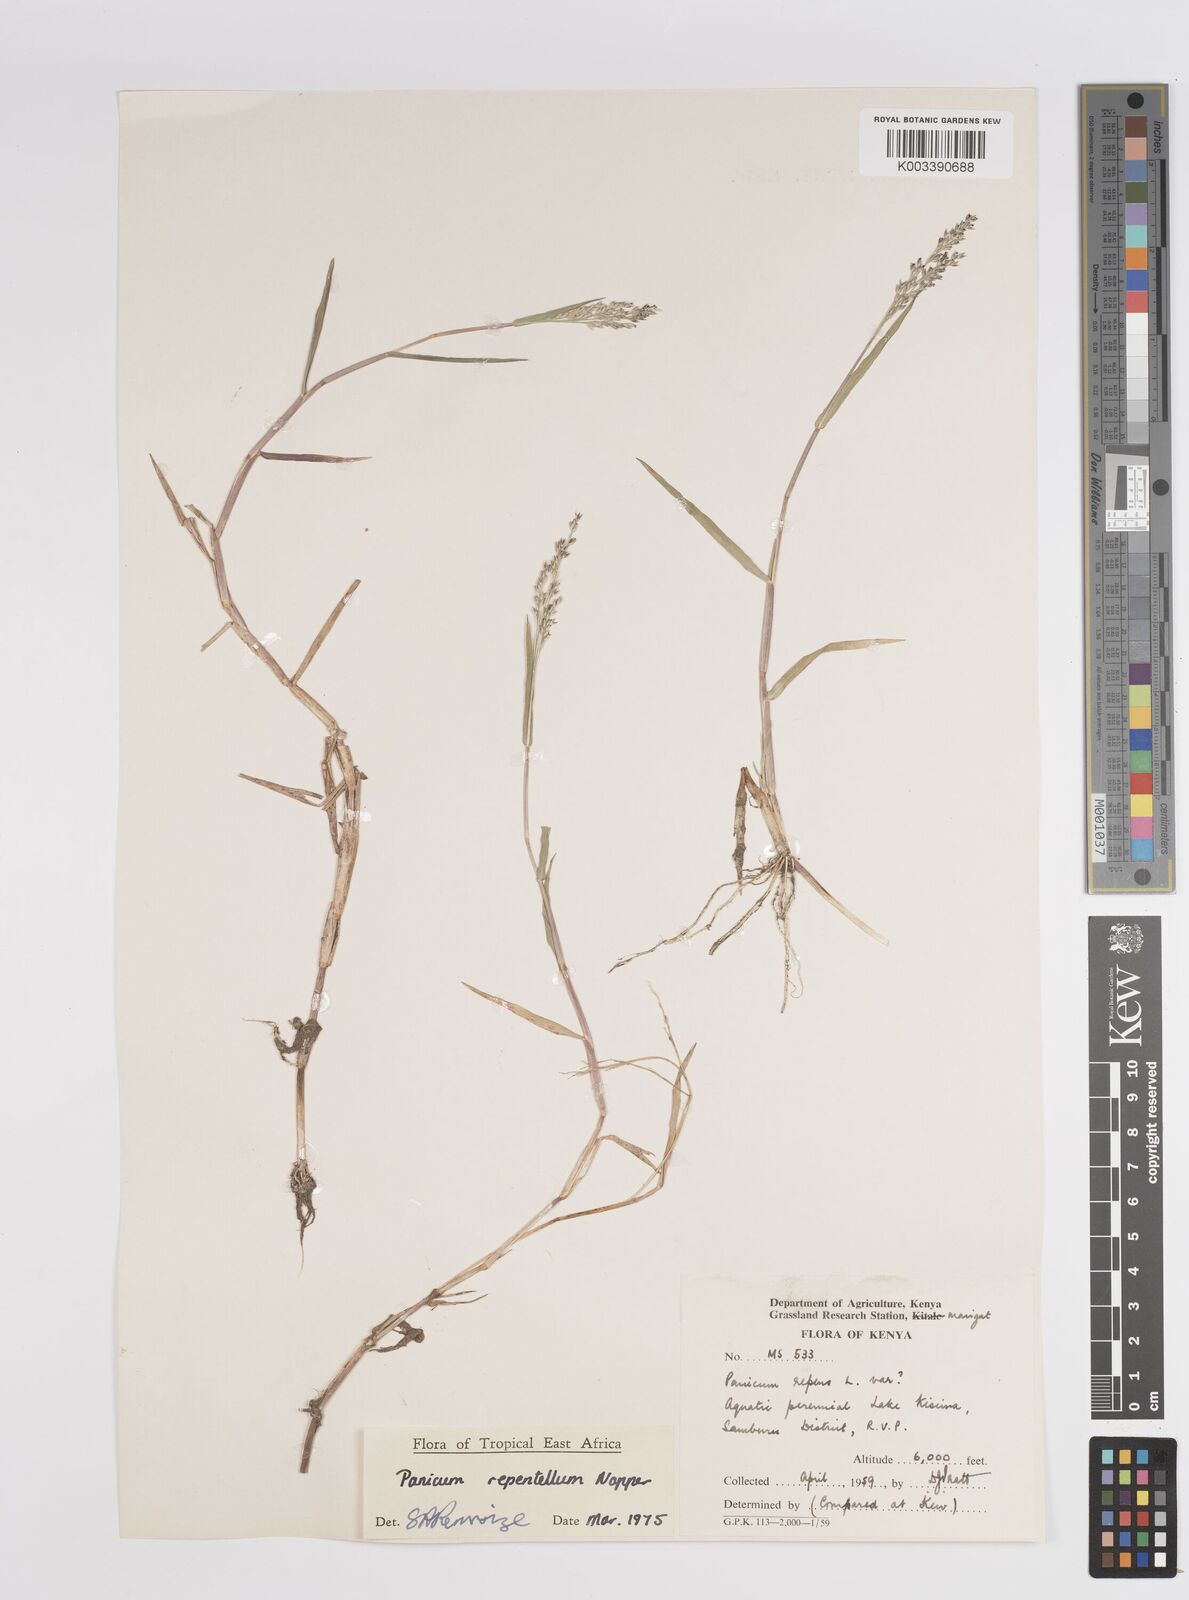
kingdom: Plantae
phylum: Tracheophyta
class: Liliopsida
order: Poales
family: Poaceae
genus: Panicum
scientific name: Panicum hygrocharis
